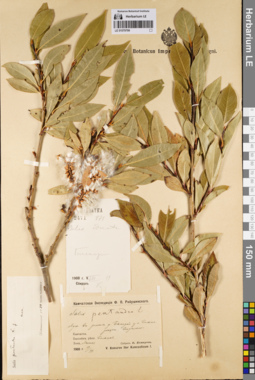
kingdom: Plantae
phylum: Tracheophyta
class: Magnoliopsida
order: Malpighiales
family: Salicaceae
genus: Salix
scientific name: Salix pseudopentandra
